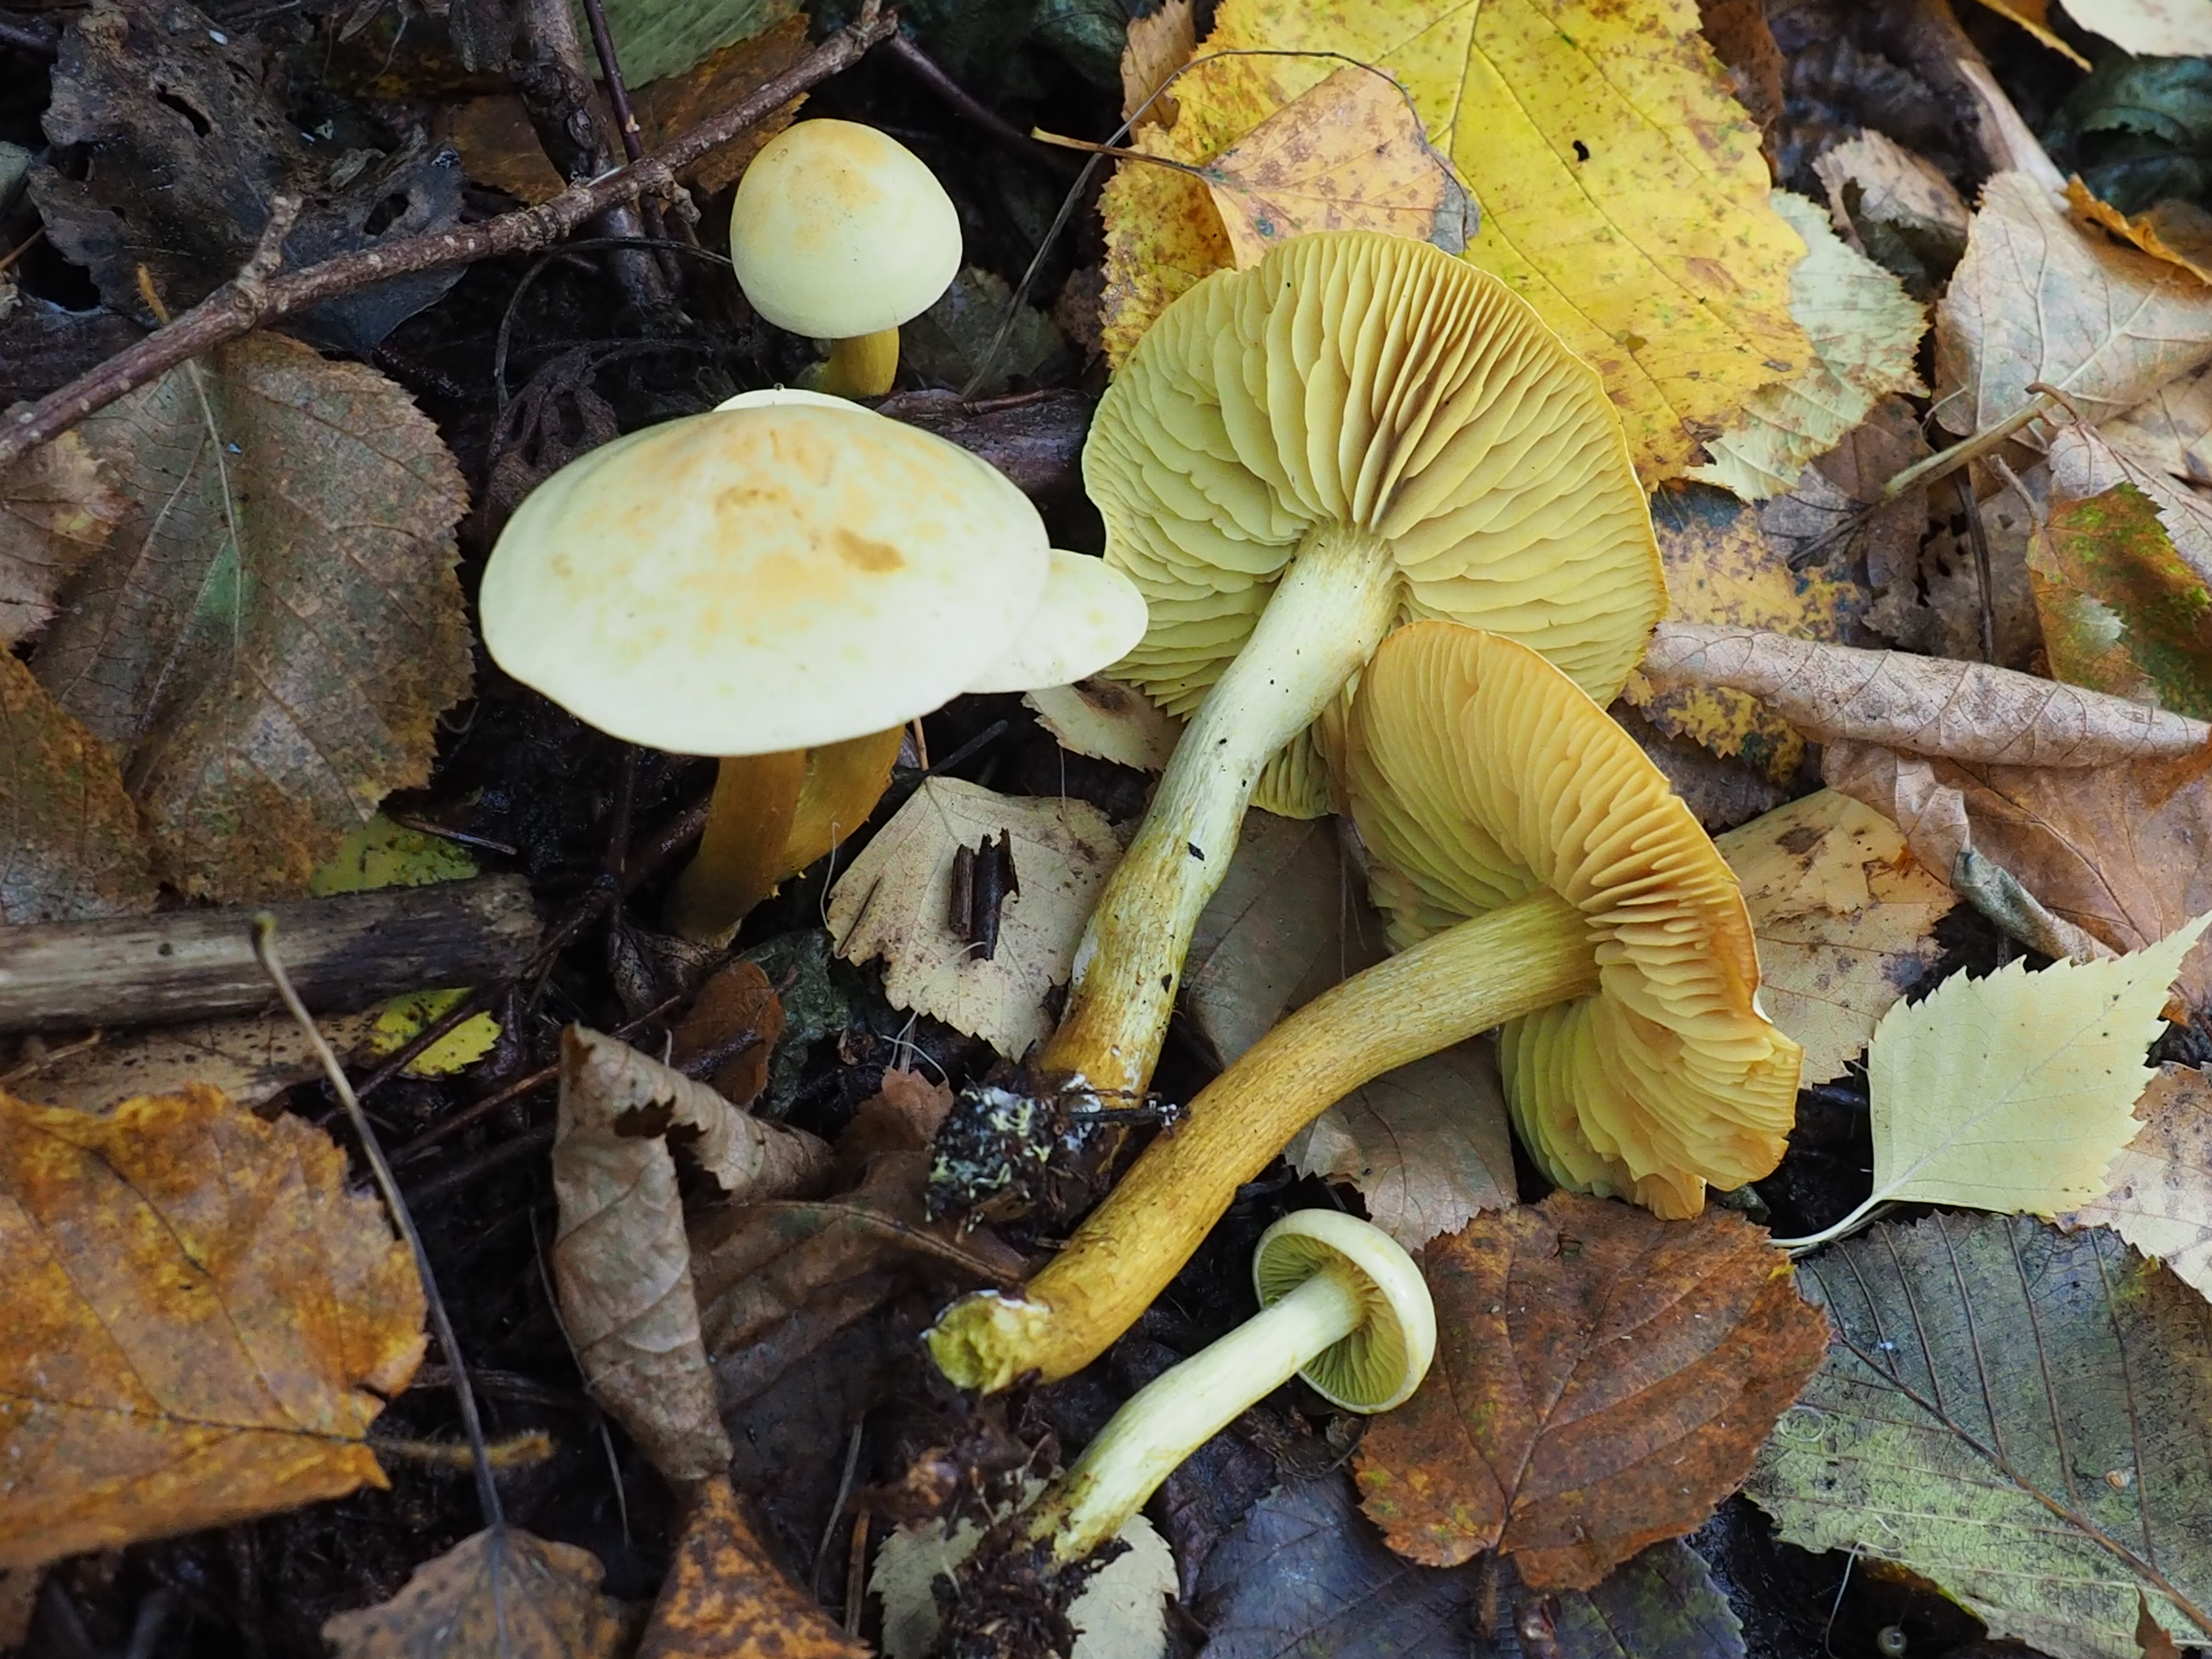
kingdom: Fungi
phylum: Basidiomycota
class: Agaricomycetes
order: Agaricales
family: Tricholomataceae
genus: Tricholoma
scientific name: Tricholoma sulphureum
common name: Stinky knight
